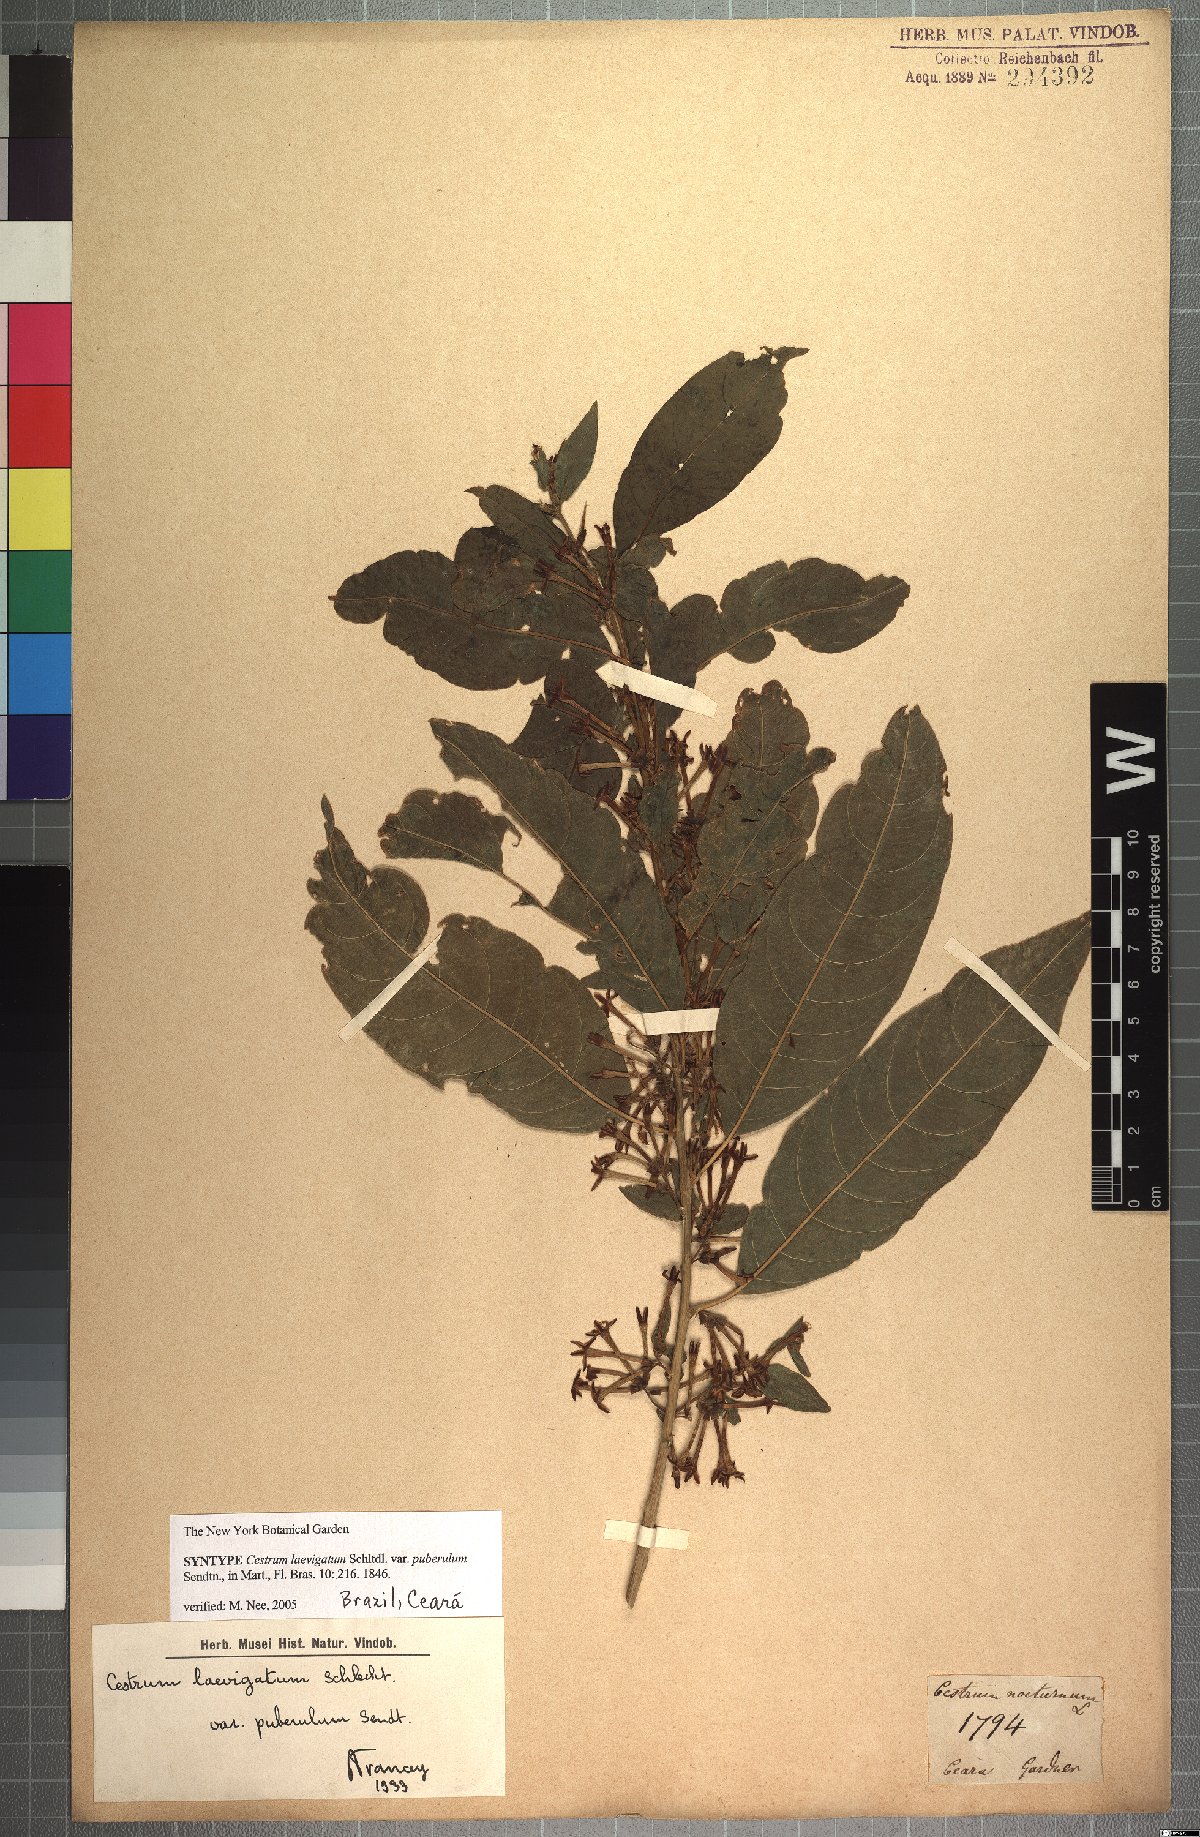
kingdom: Plantae
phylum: Tracheophyta
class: Magnoliopsida
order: Solanales
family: Solanaceae
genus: Cestrum
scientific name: Cestrum laevigatum
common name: Inkberry
